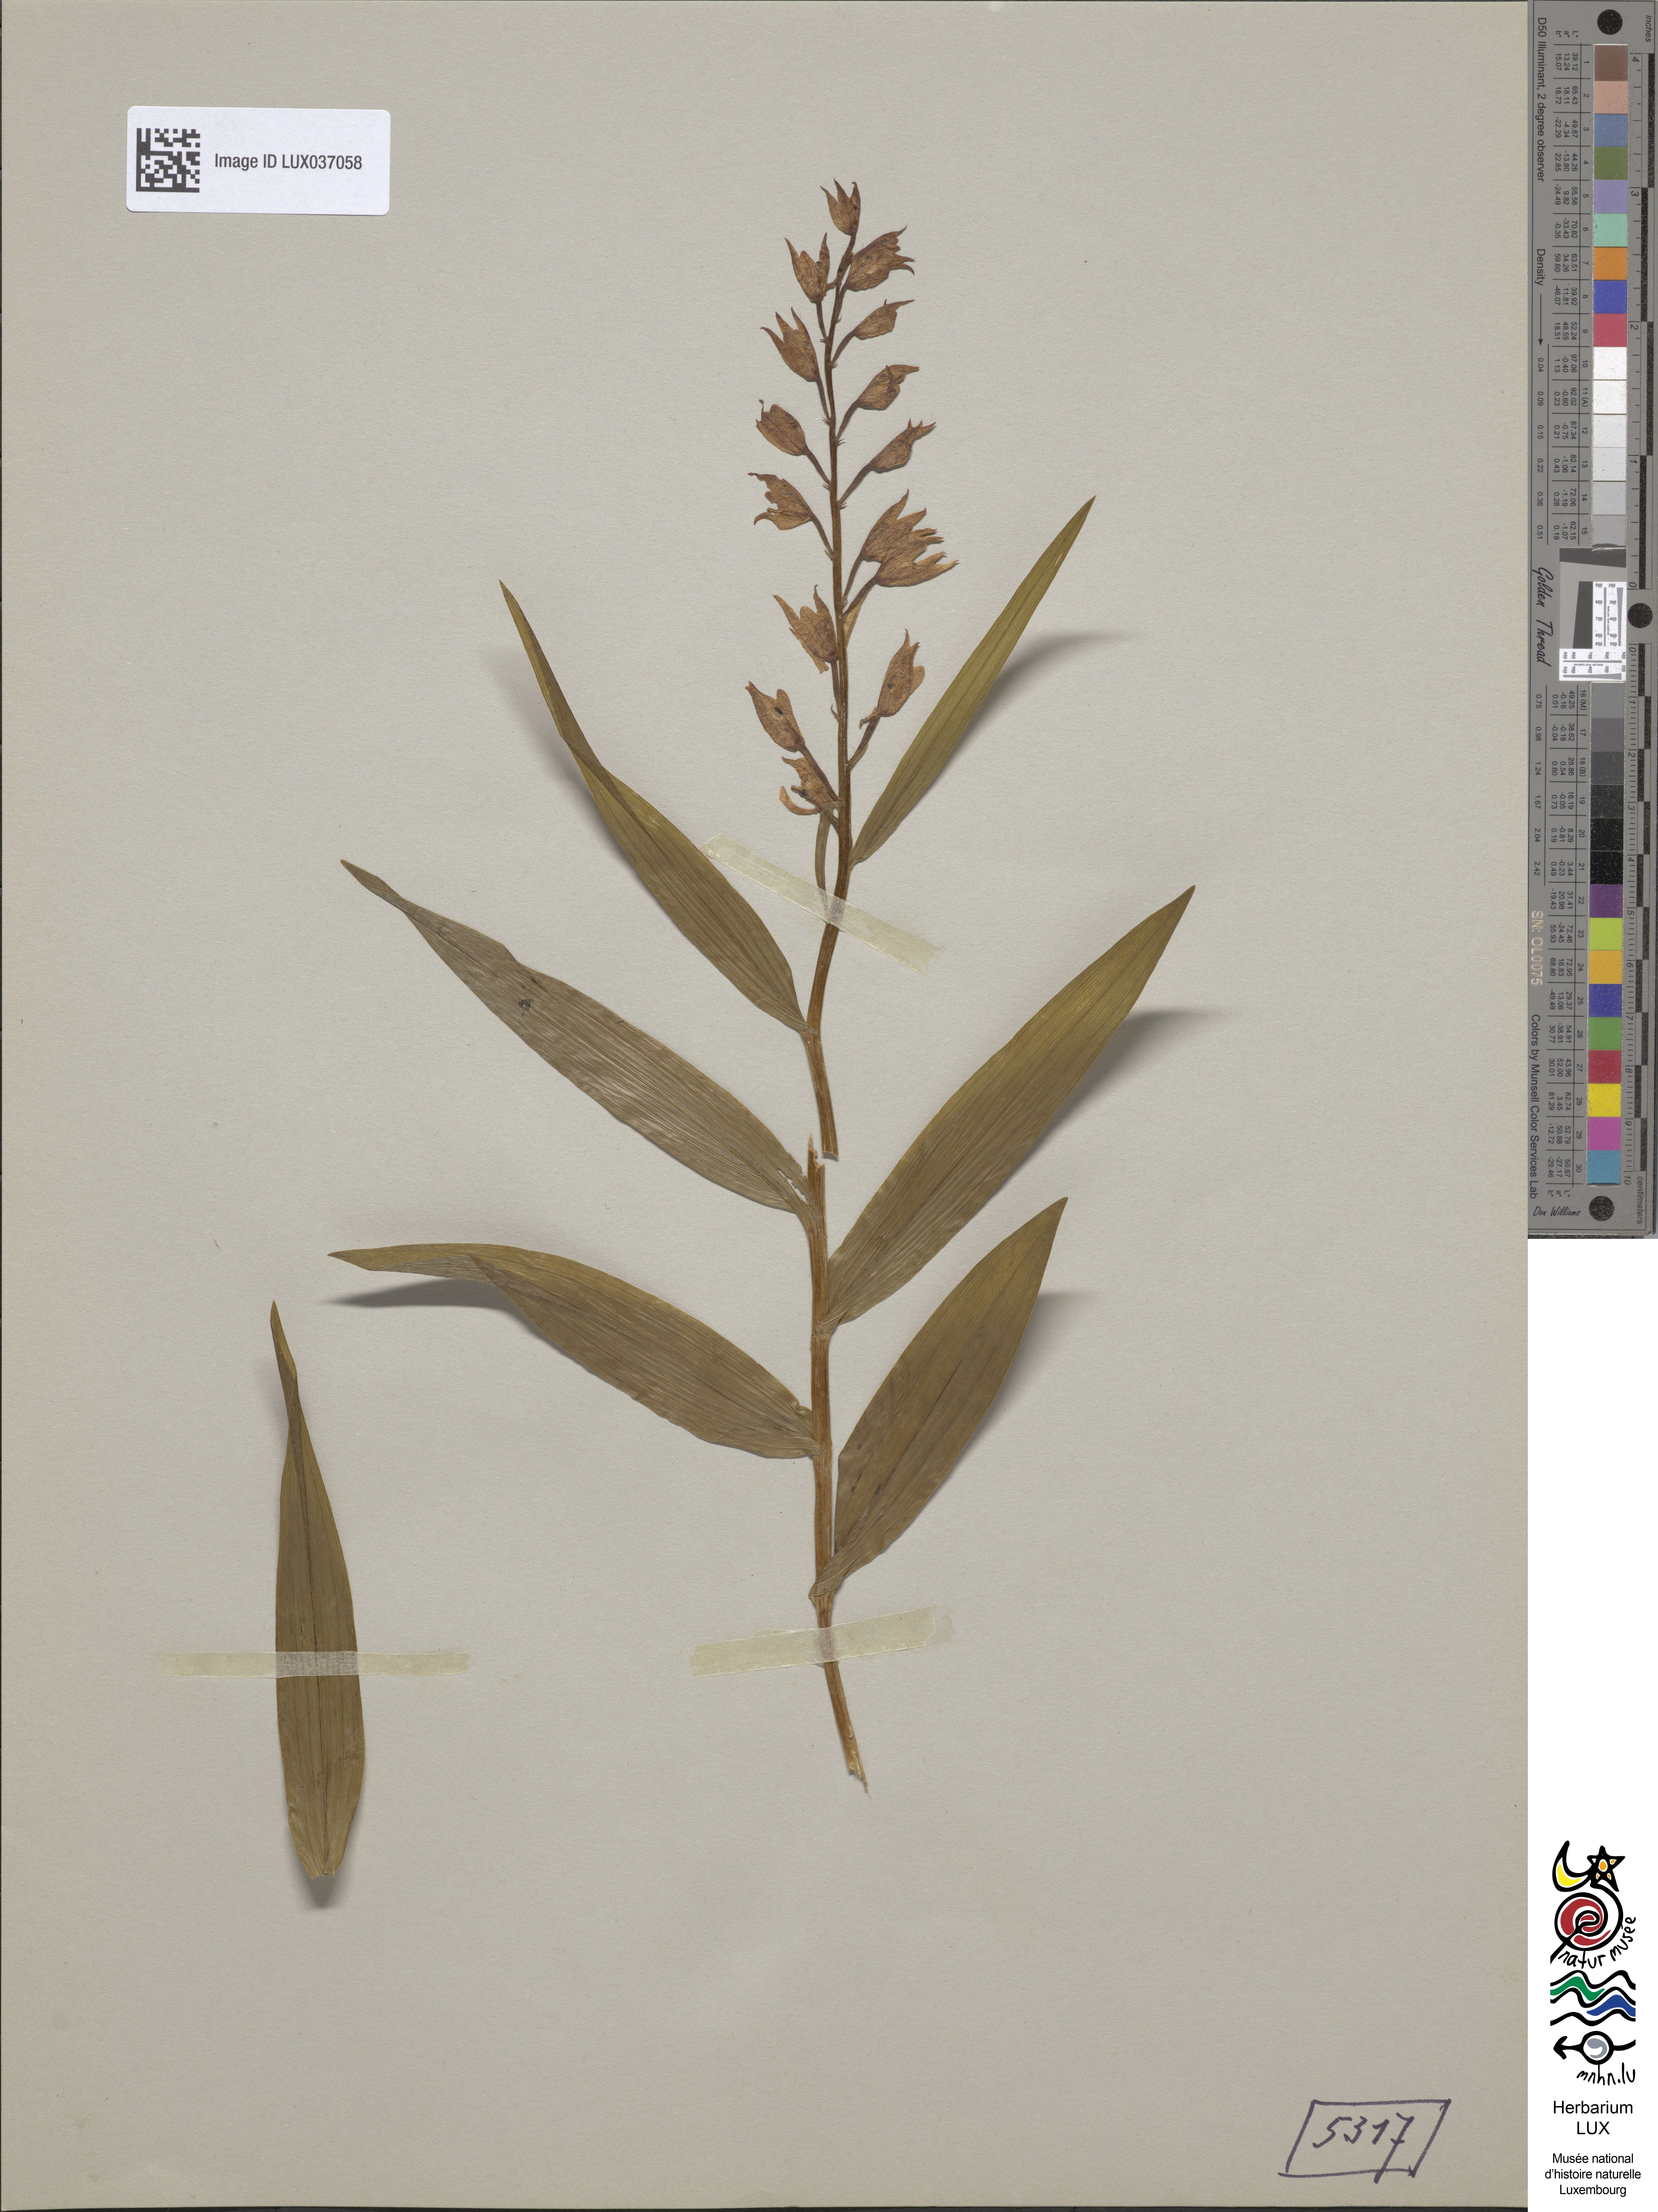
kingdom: Plantae
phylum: Tracheophyta
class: Liliopsida
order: Asparagales
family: Orchidaceae
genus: Cephalanthera
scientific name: Cephalanthera longifolia
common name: Narrow-leaved helleborine
